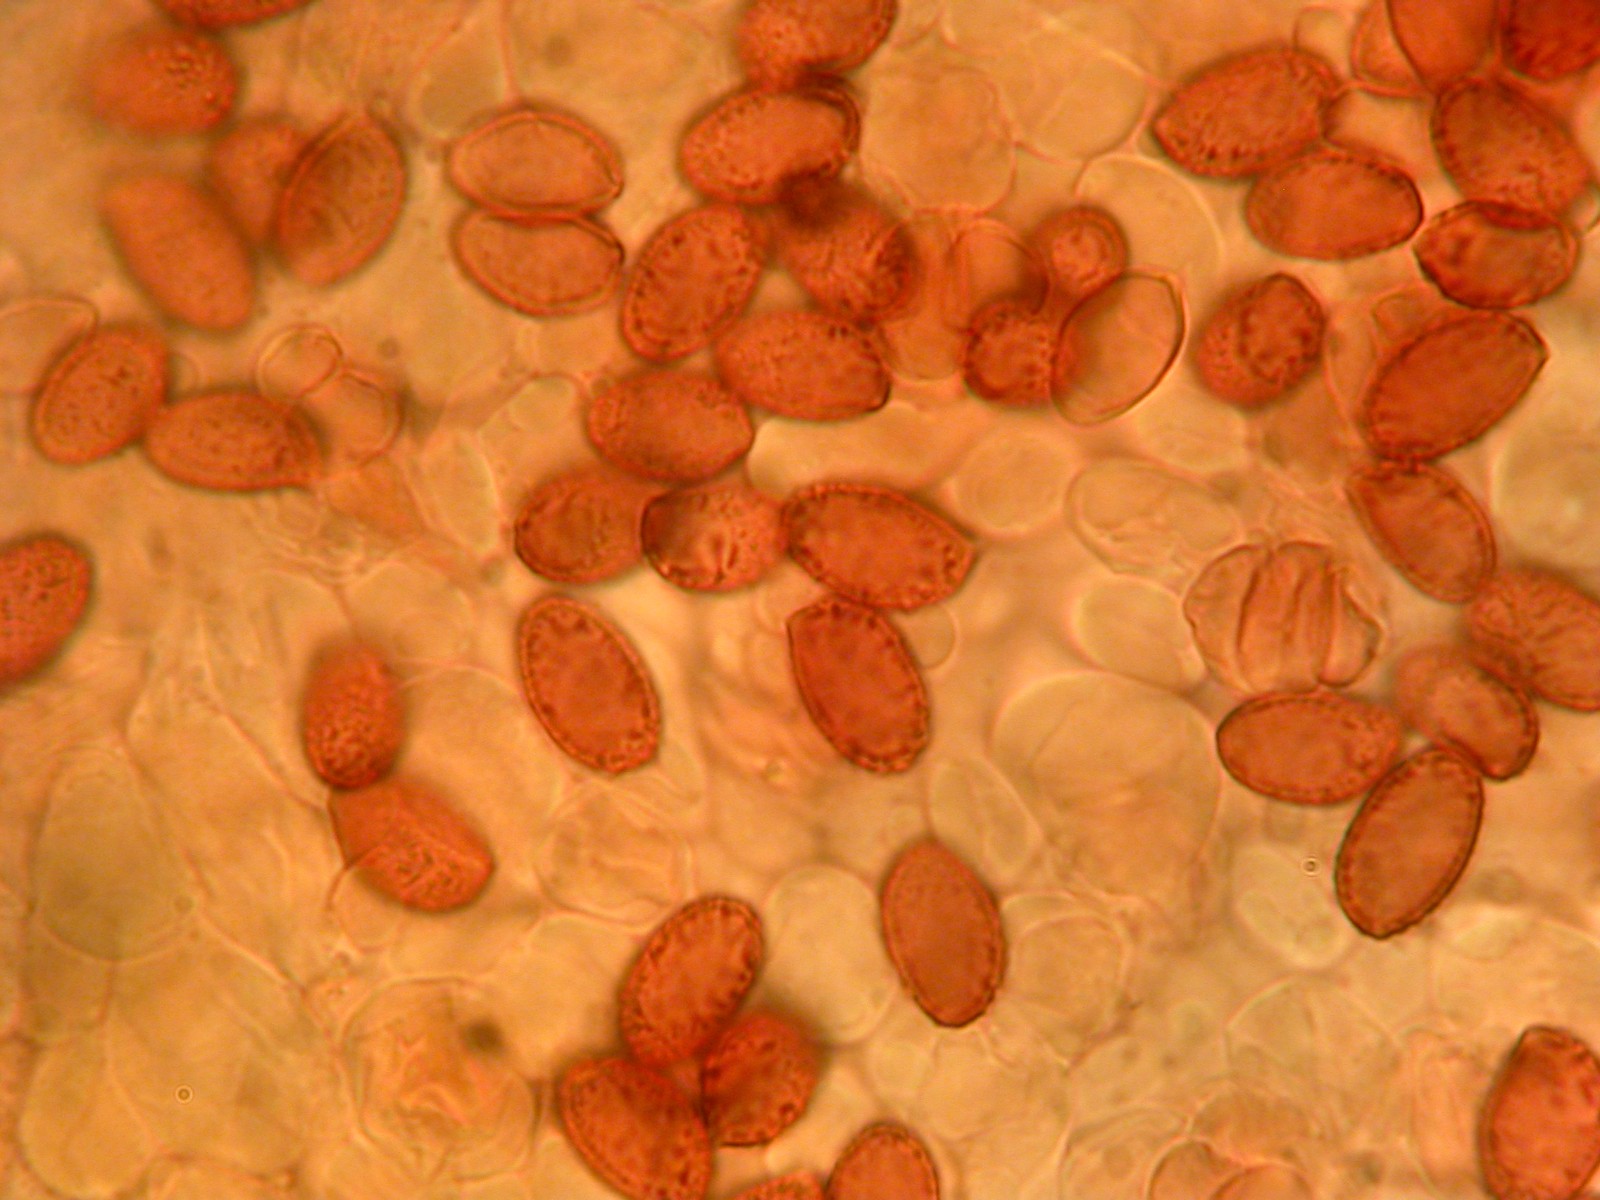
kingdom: Fungi
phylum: Basidiomycota
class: Agaricomycetes
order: Agaricales
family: Cortinariaceae
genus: Cortinarius
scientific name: Cortinarius hirtus
